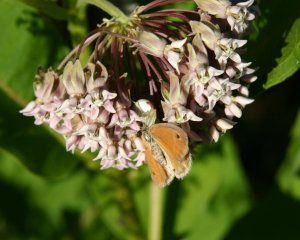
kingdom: Animalia
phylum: Arthropoda
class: Insecta
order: Lepidoptera
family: Nymphalidae
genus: Coenonympha
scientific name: Coenonympha tullia
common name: Large Heath
